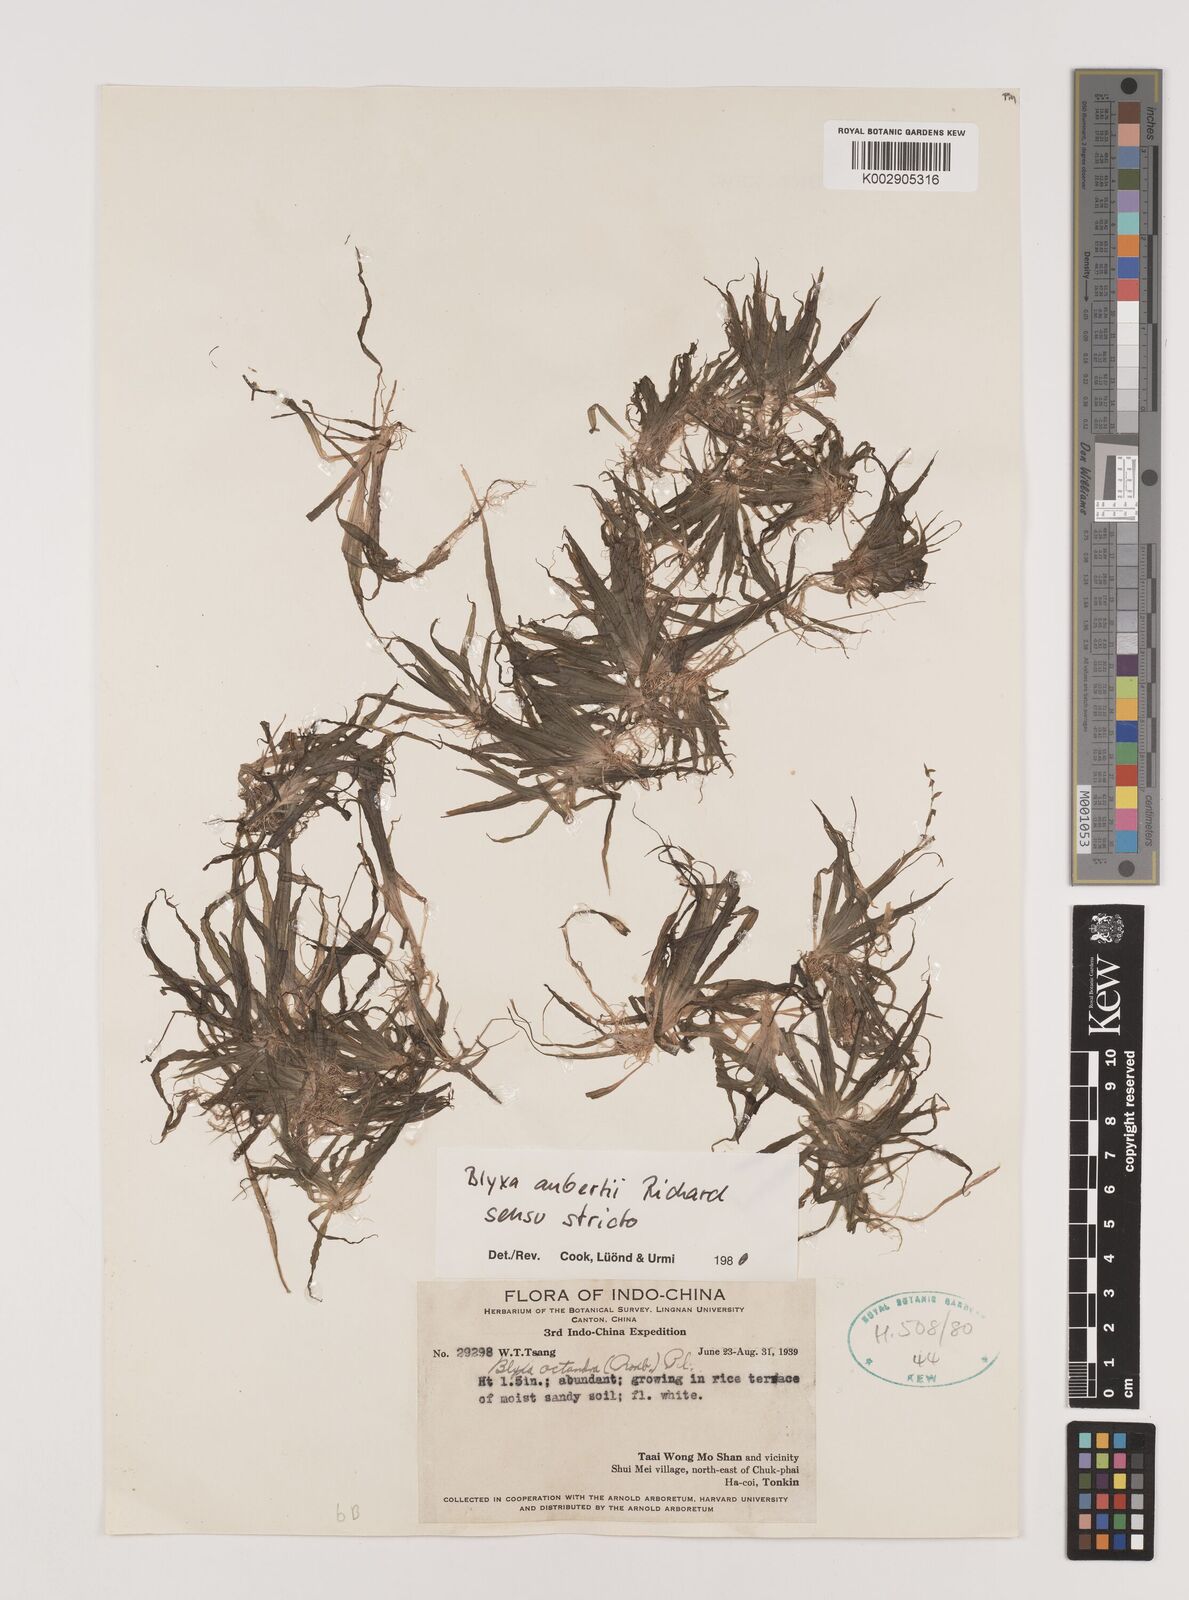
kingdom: Plantae
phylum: Tracheophyta
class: Liliopsida
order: Alismatales
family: Hydrocharitaceae
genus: Blyxa
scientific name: Blyxa aubertii
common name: Roundfruit blyxa
